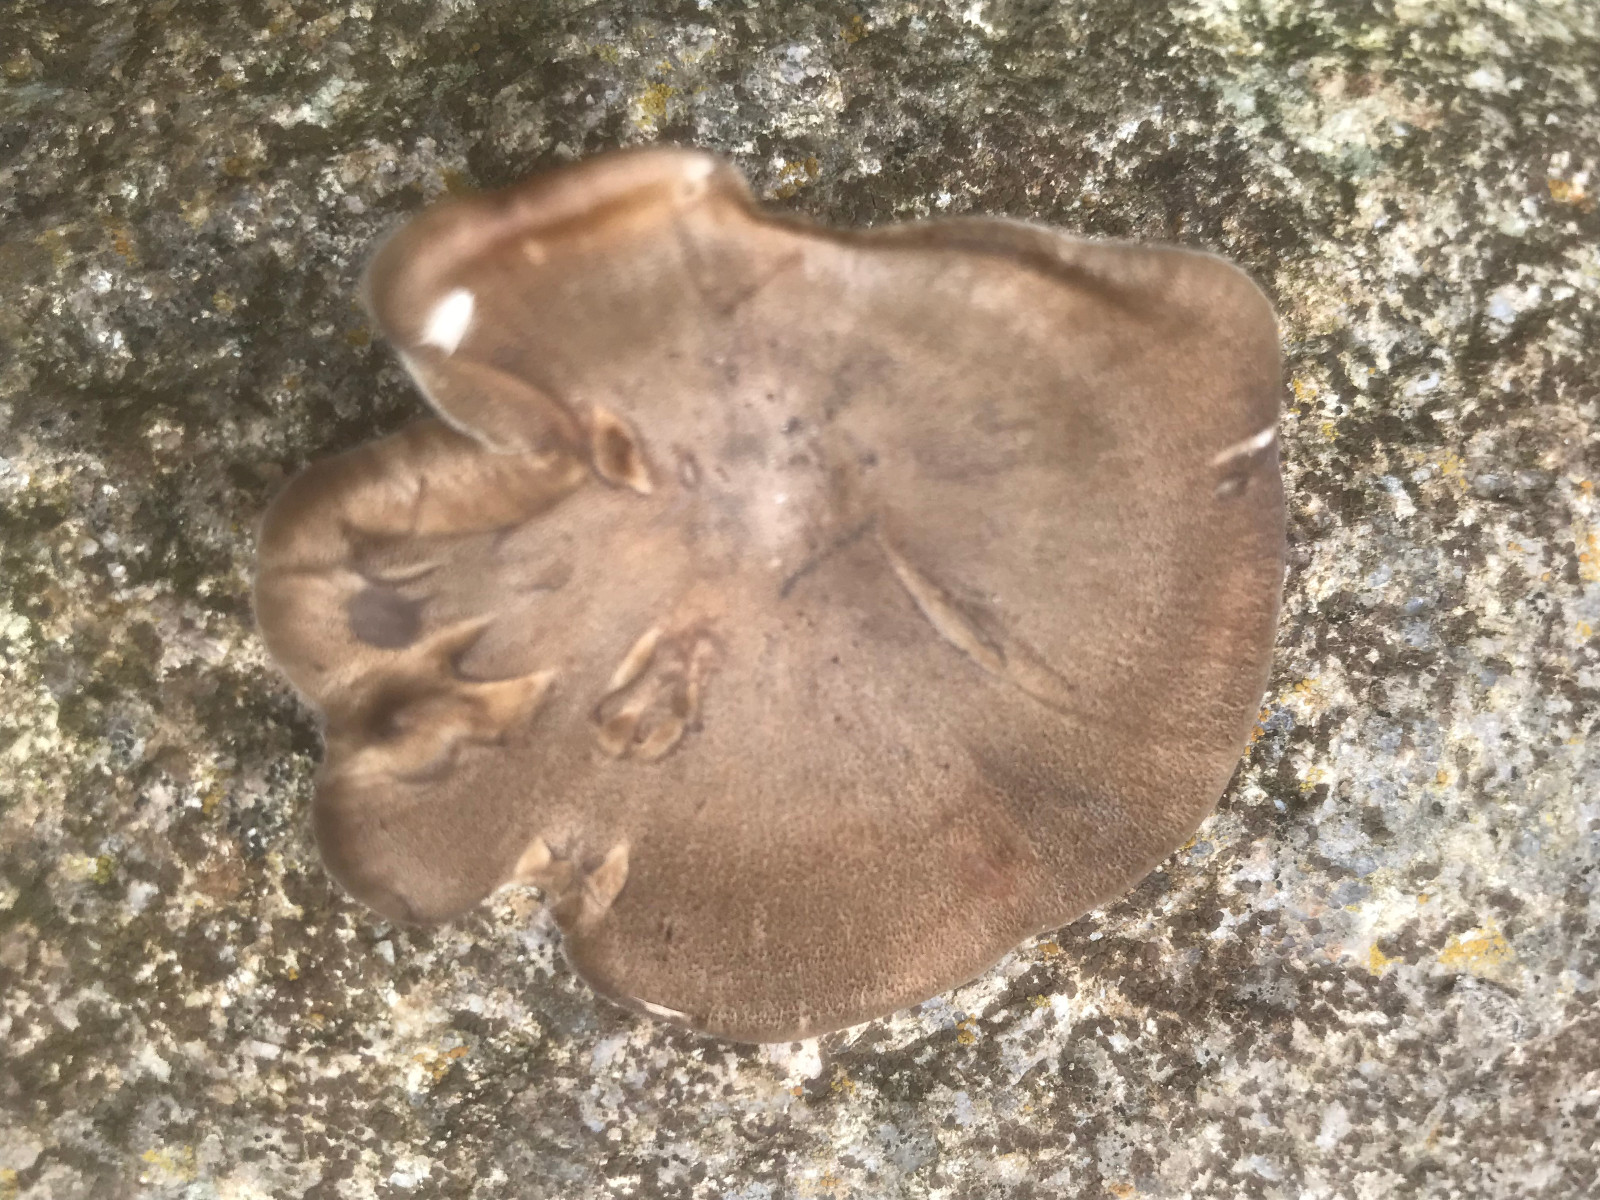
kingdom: Fungi
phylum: Basidiomycota
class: Agaricomycetes
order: Polyporales
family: Polyporaceae
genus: Lentinus
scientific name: Lentinus brumalis
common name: vinter-stilkporesvamp
